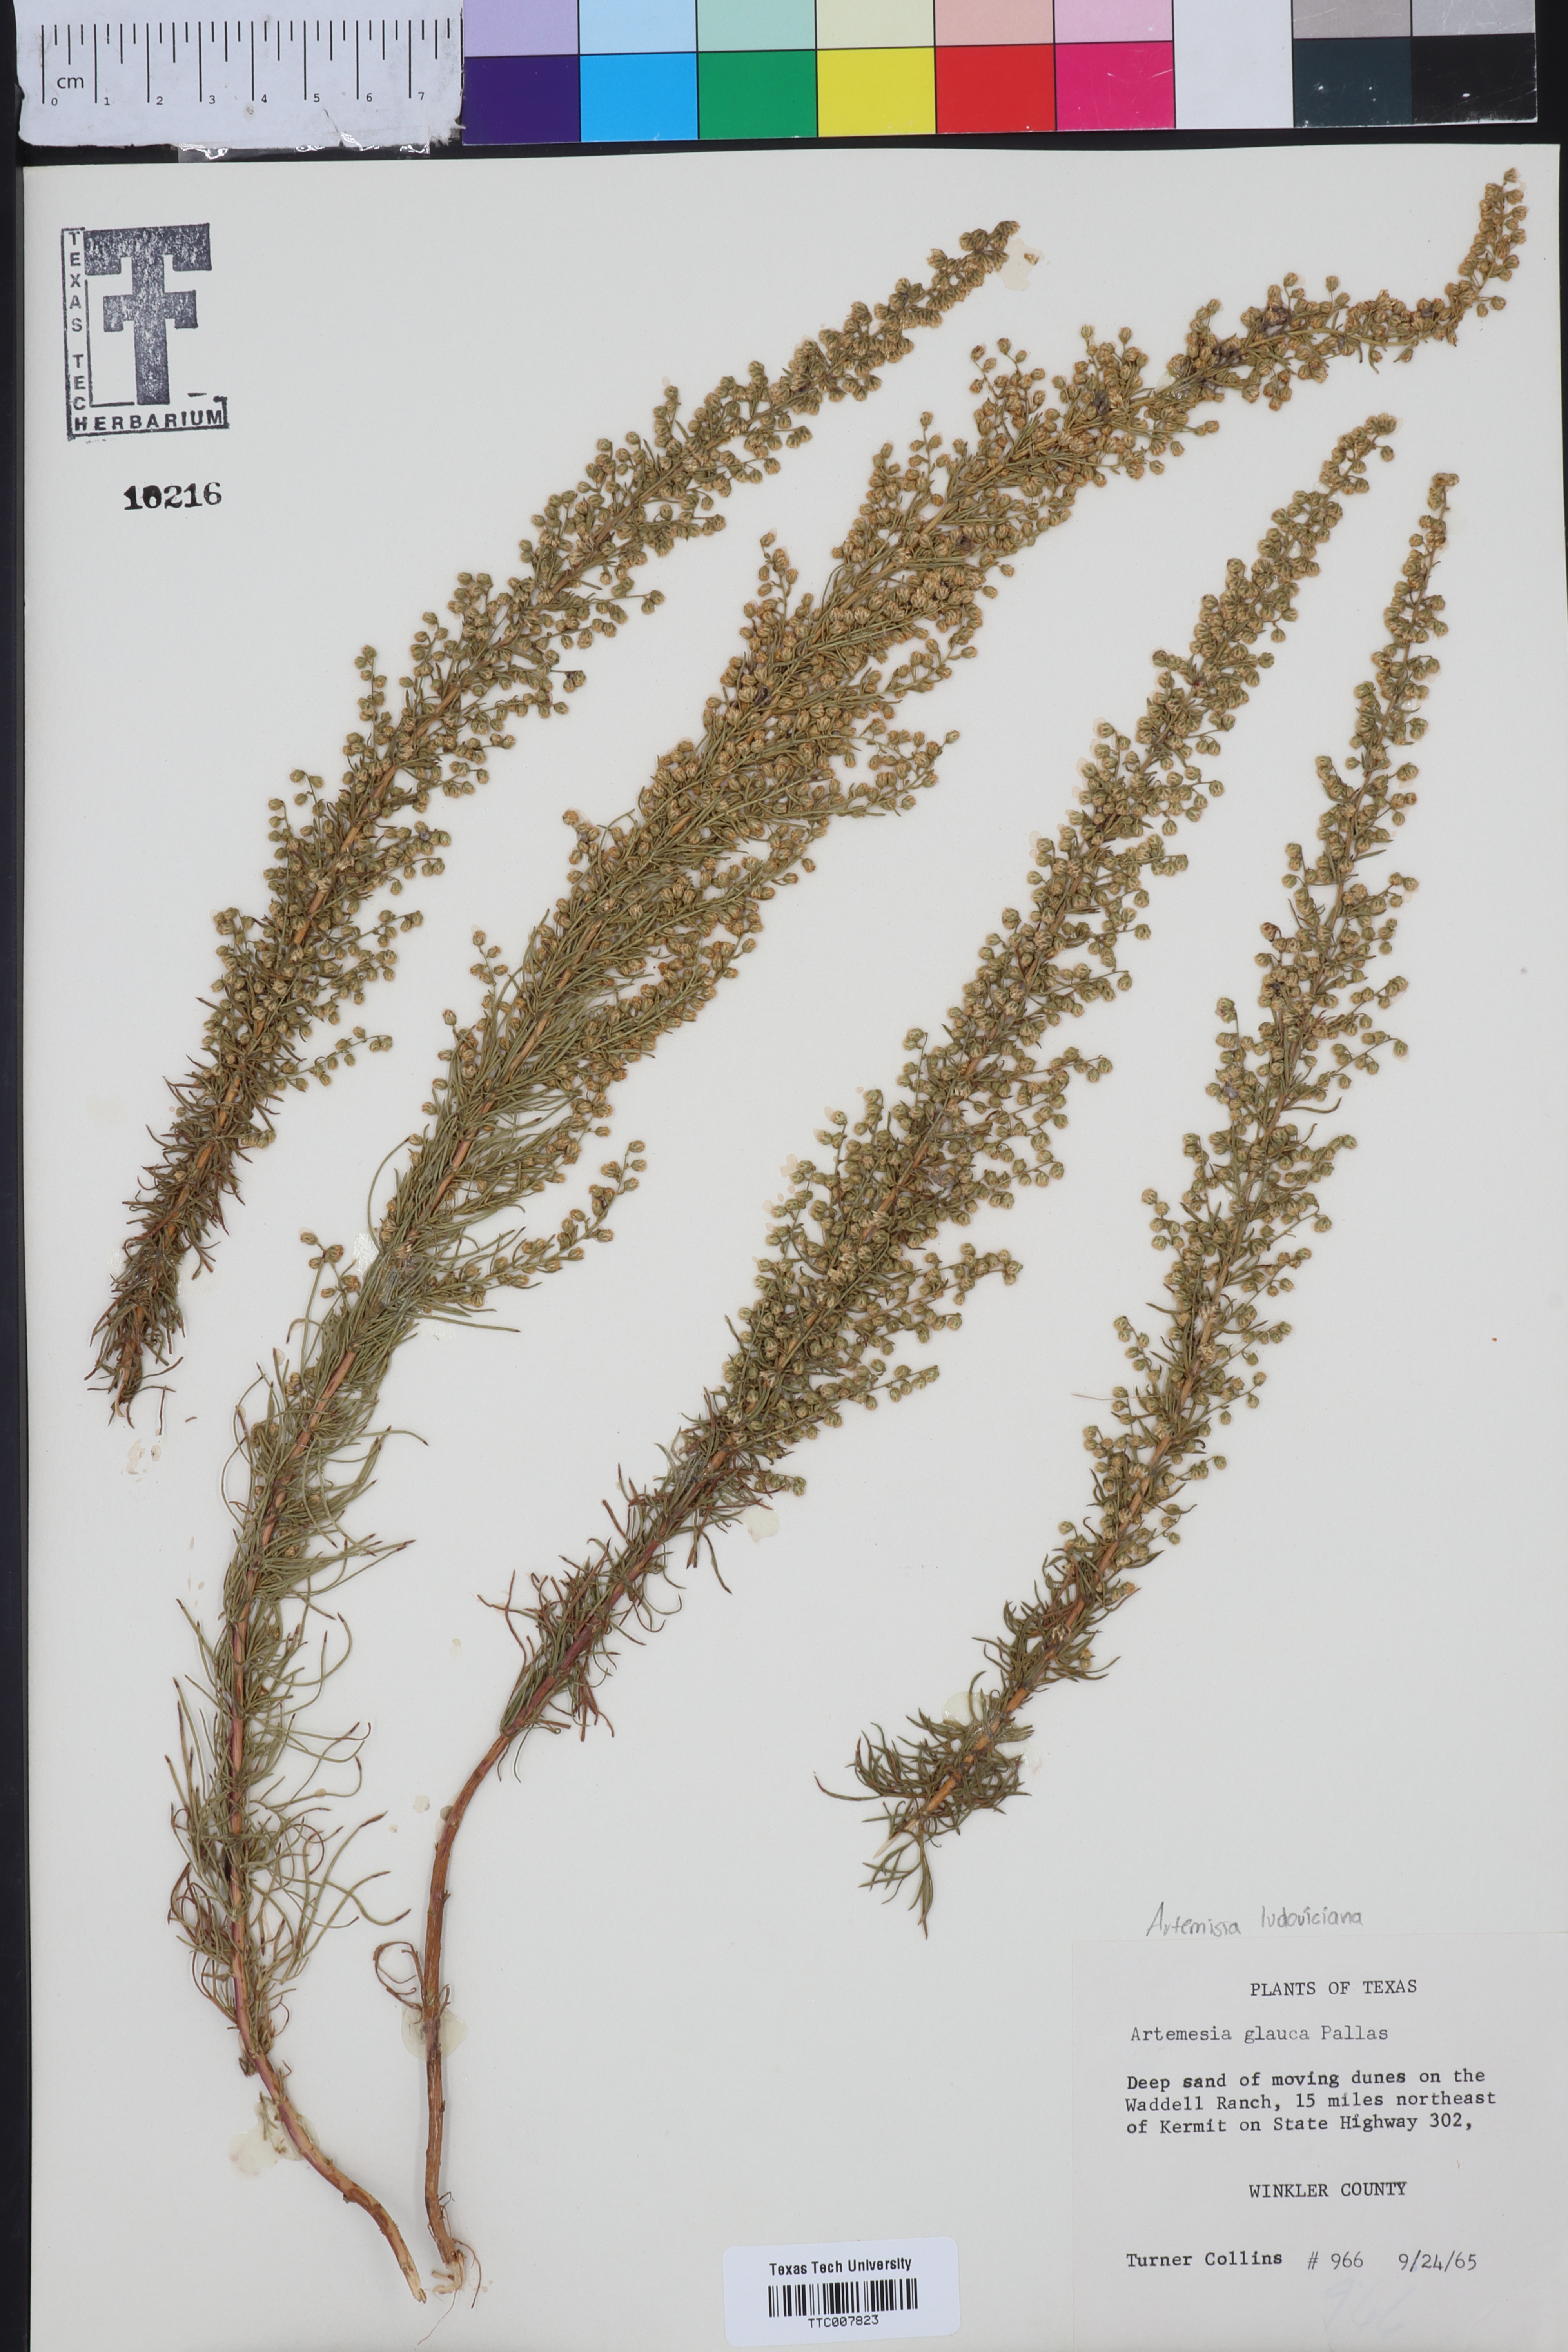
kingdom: Plantae
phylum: Tracheophyta
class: Magnoliopsida
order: Asterales
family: Asteraceae
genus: Artemisia
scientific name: Artemisia glauca
